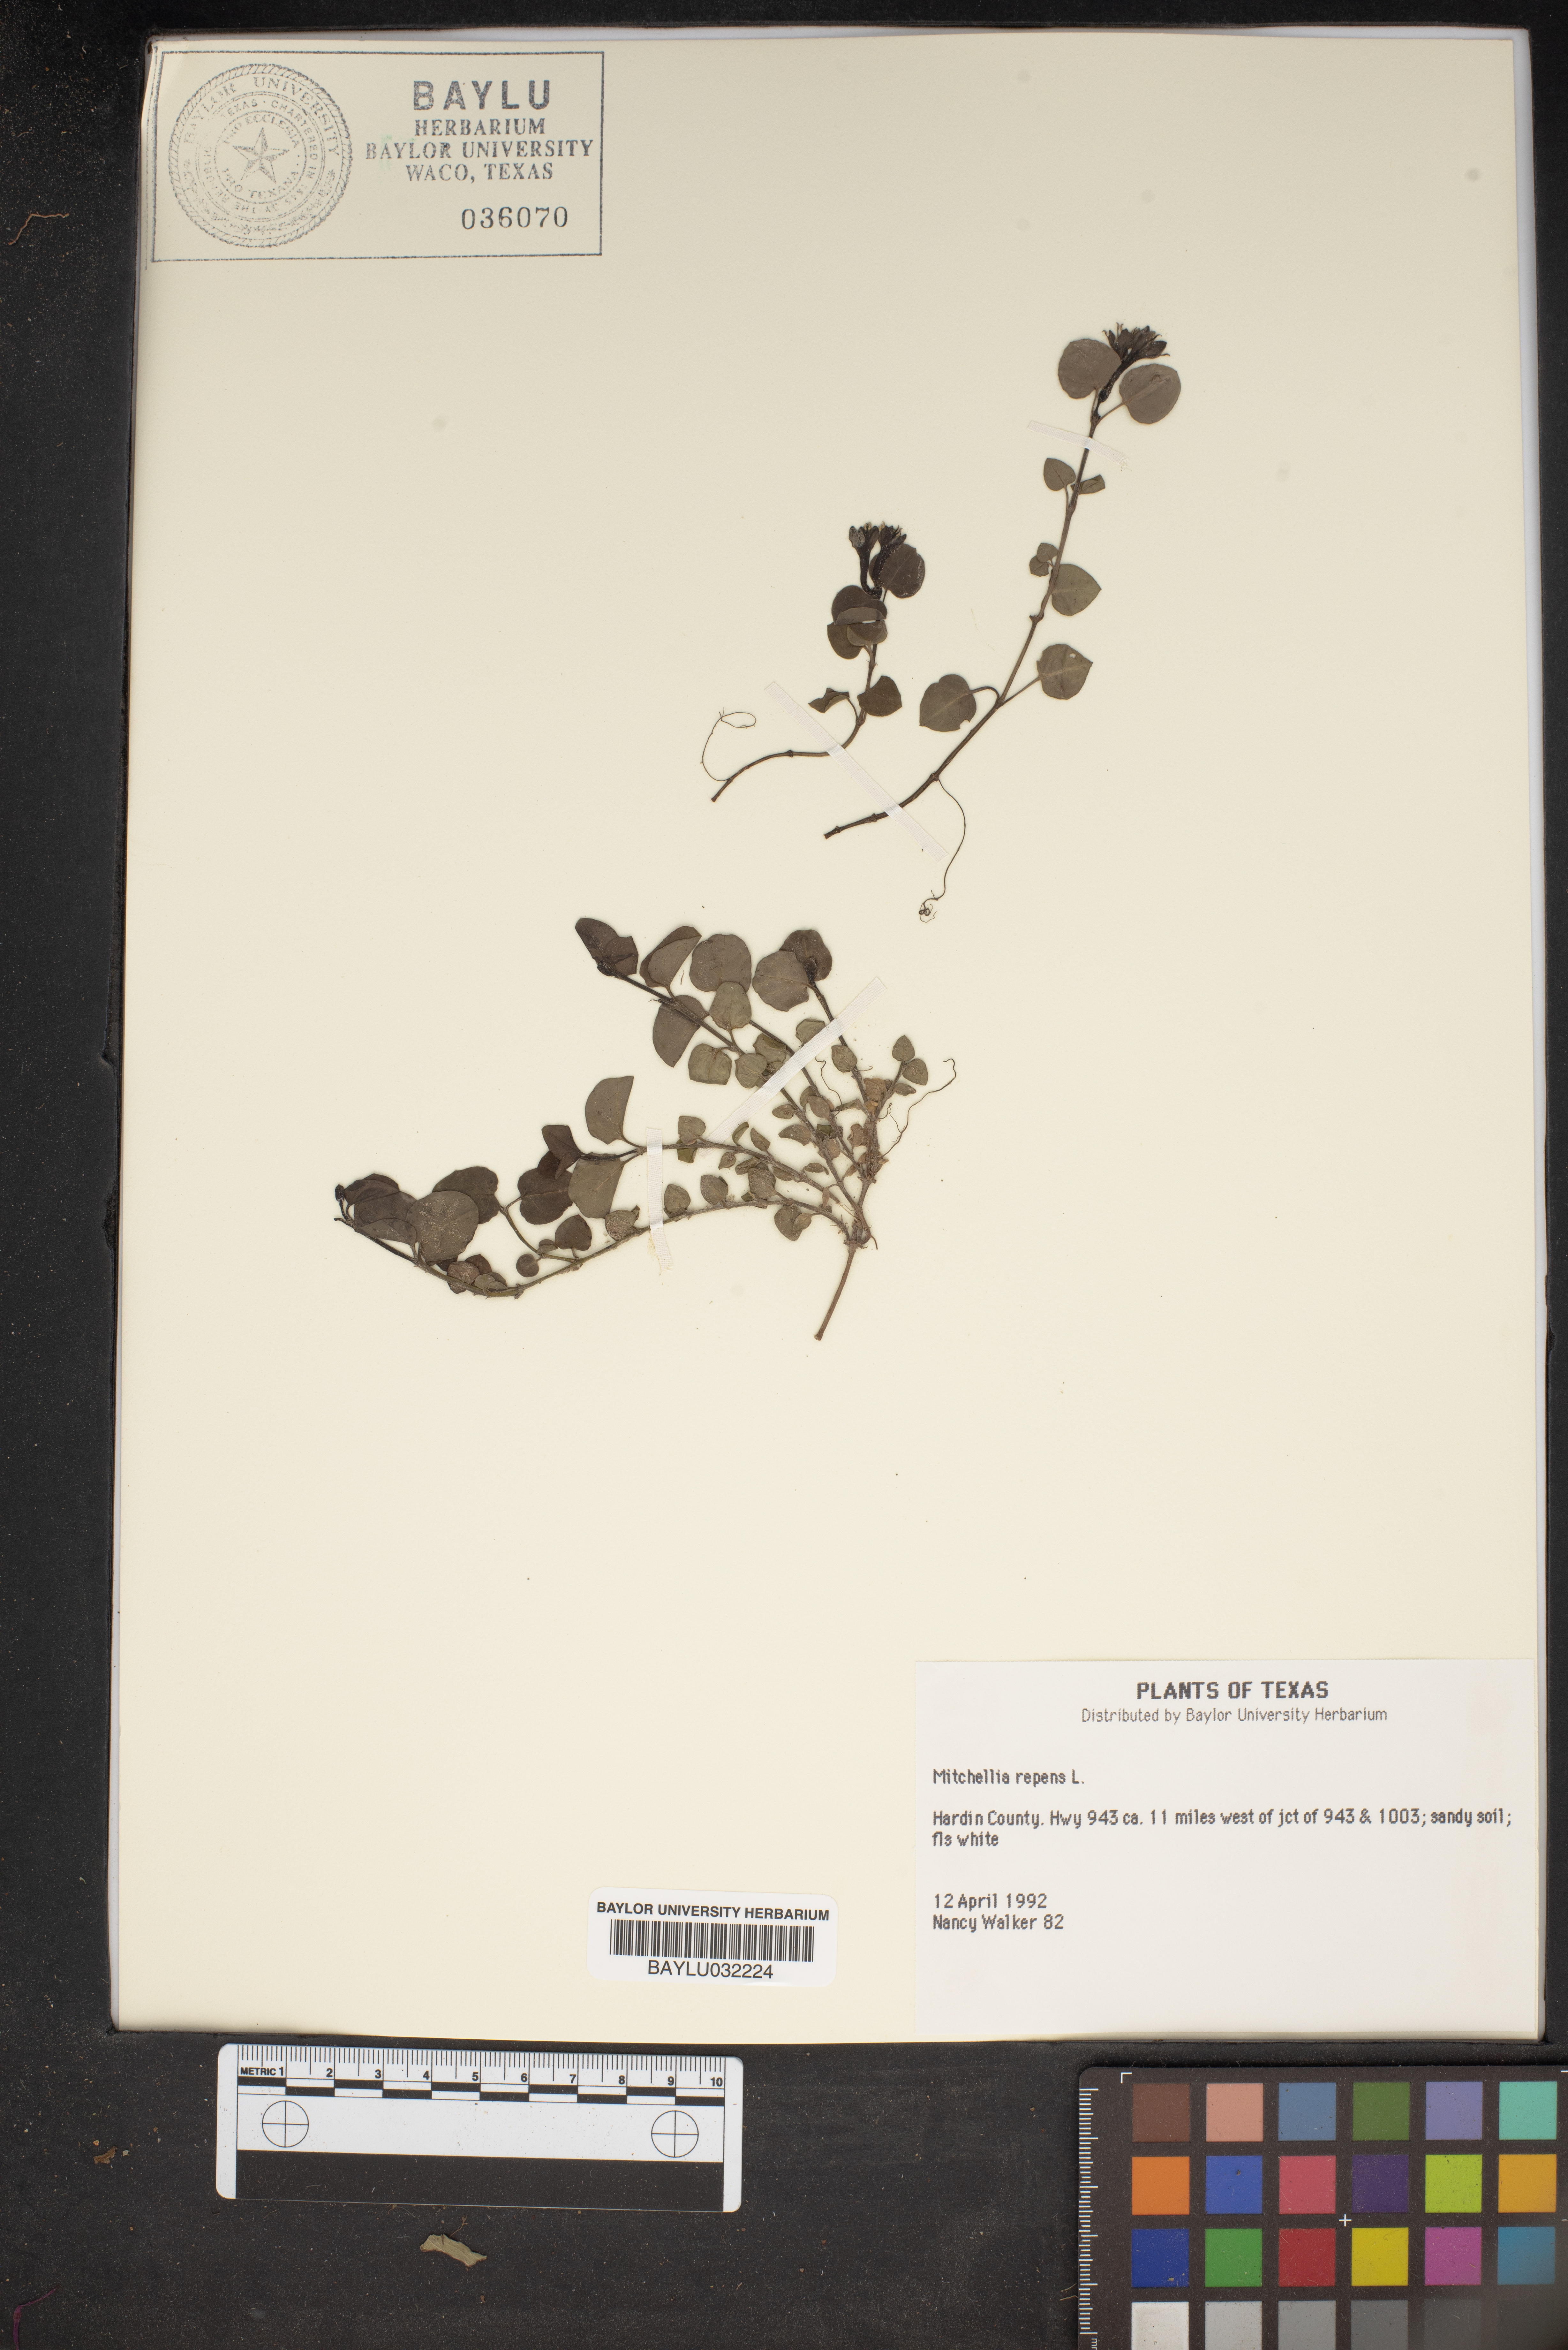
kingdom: Plantae
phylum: Tracheophyta
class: Magnoliopsida
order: Gentianales
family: Rubiaceae
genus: Mitchella
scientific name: Mitchella repens
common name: Partridge-berry
